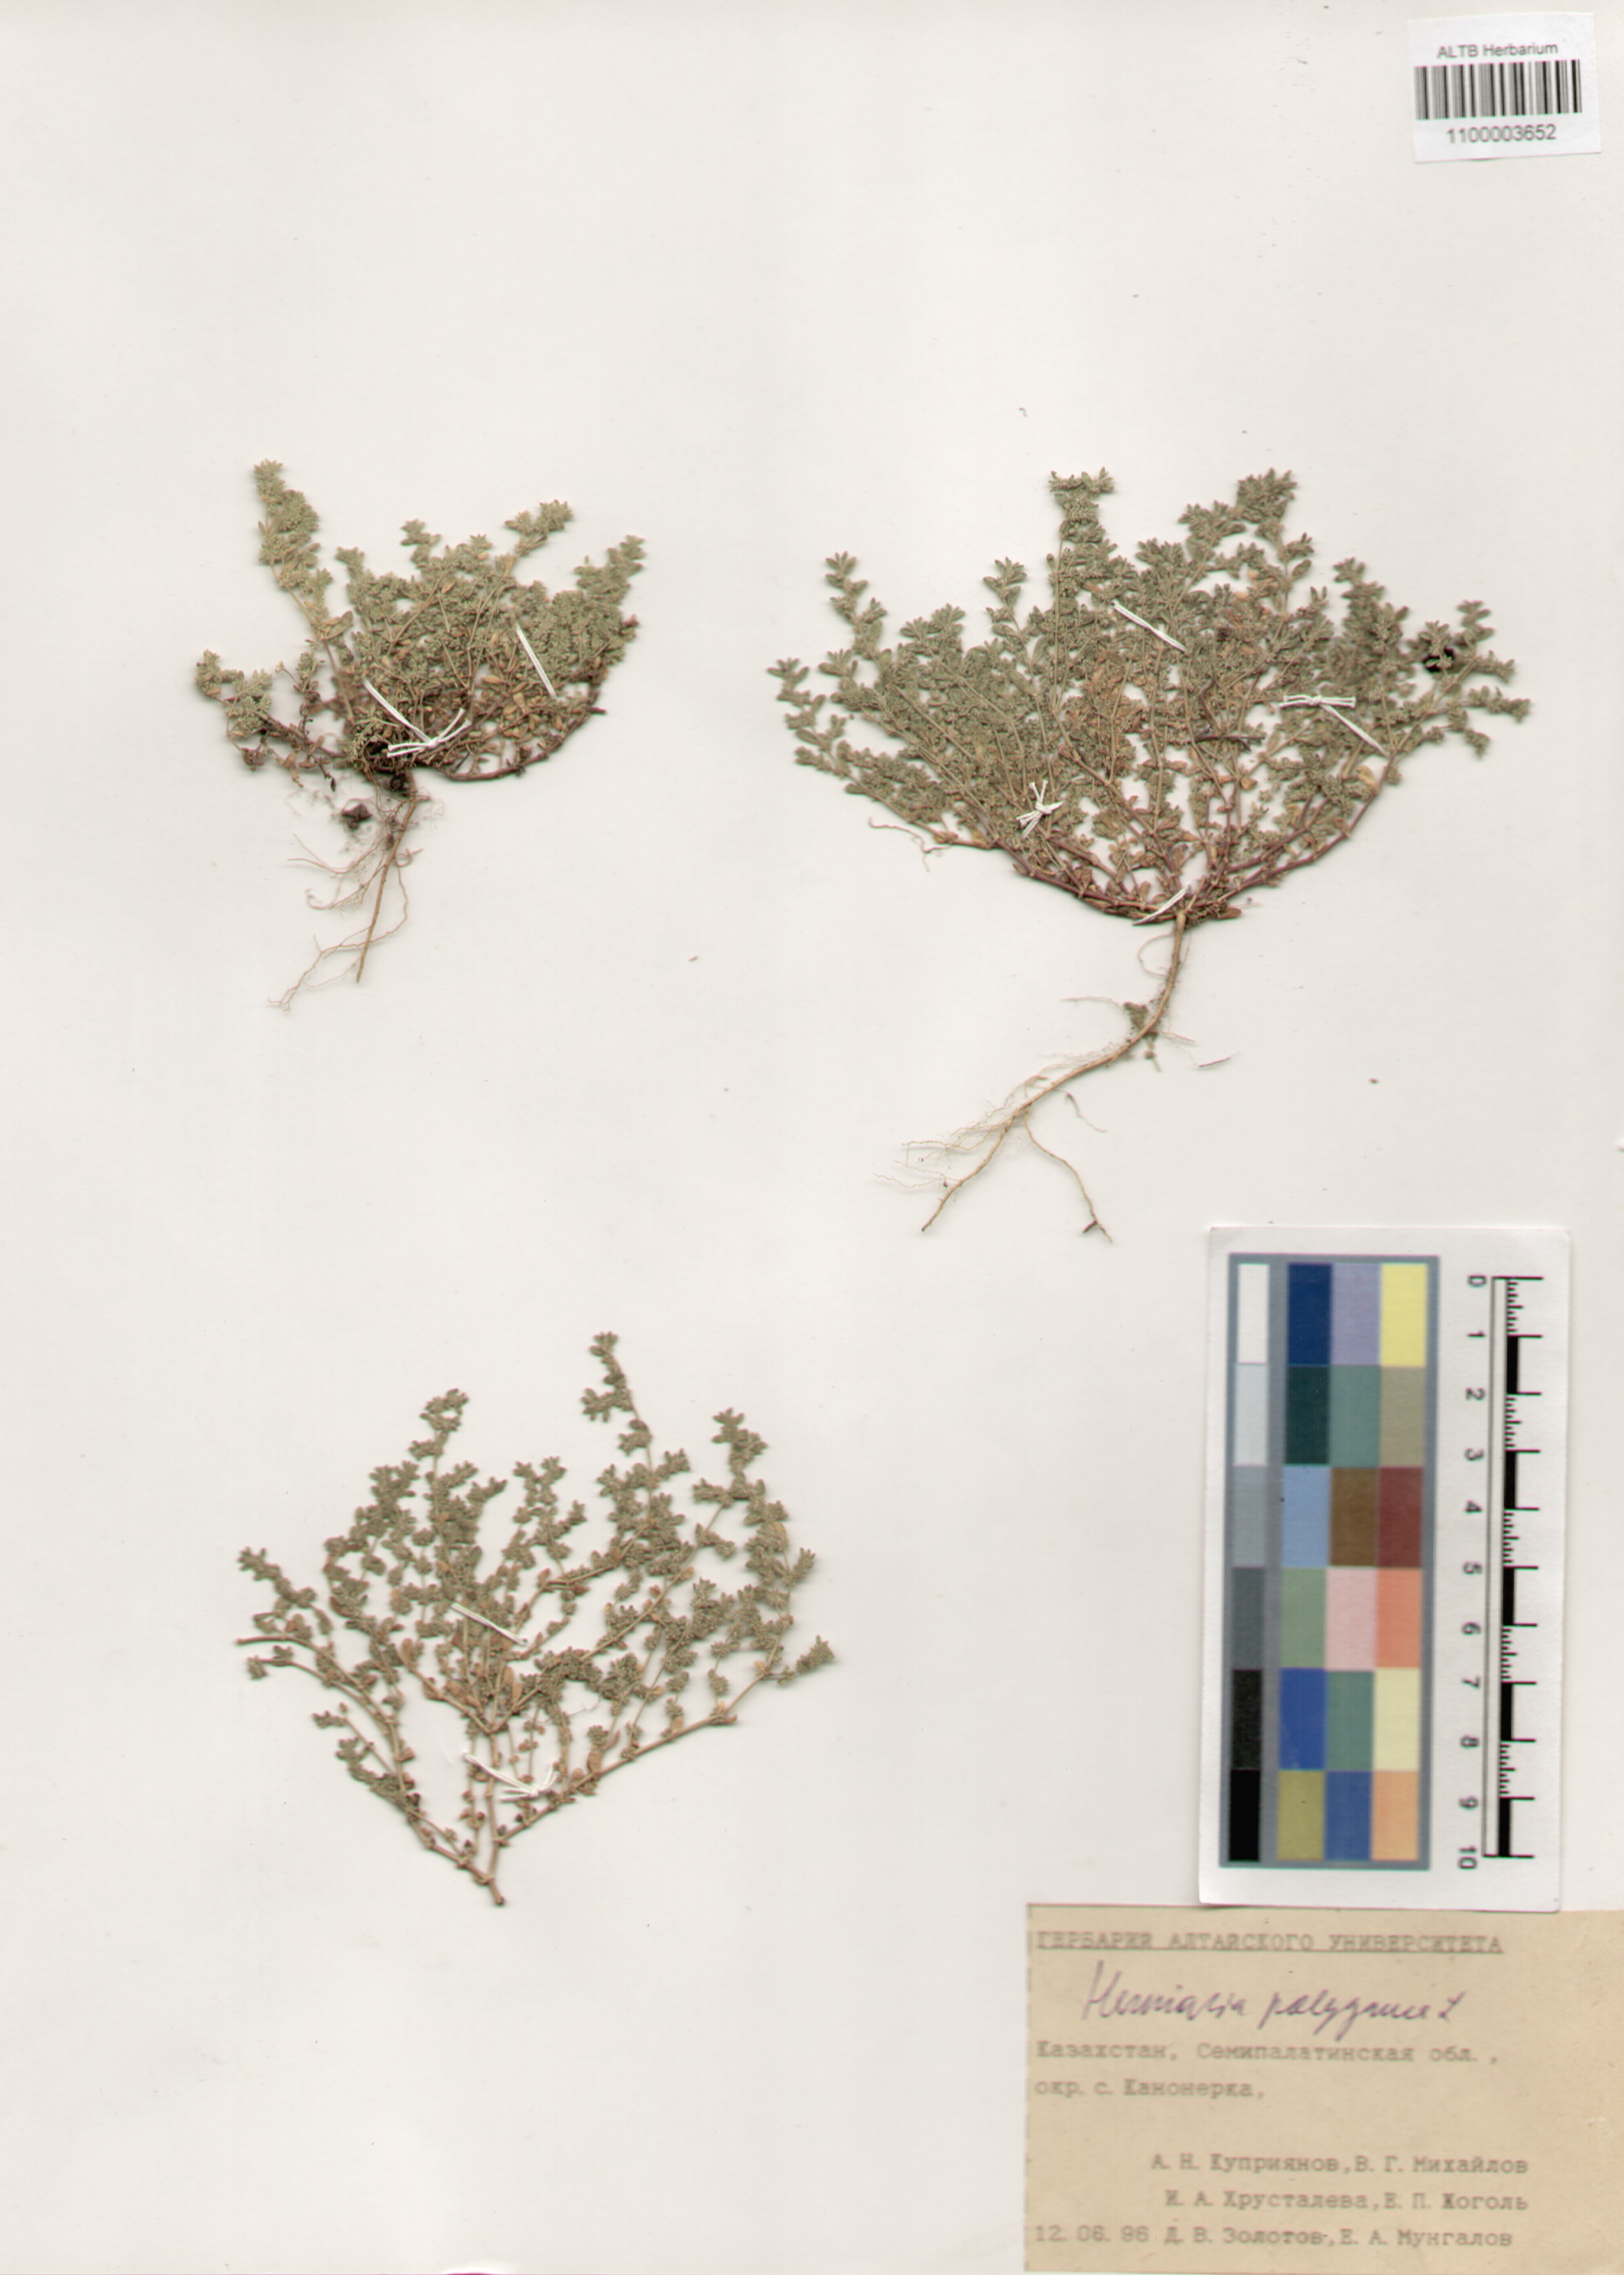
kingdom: Plantae
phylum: Tracheophyta
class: Magnoliopsida
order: Caryophyllales
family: Caryophyllaceae
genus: Herniaria
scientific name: Herniaria polygama
